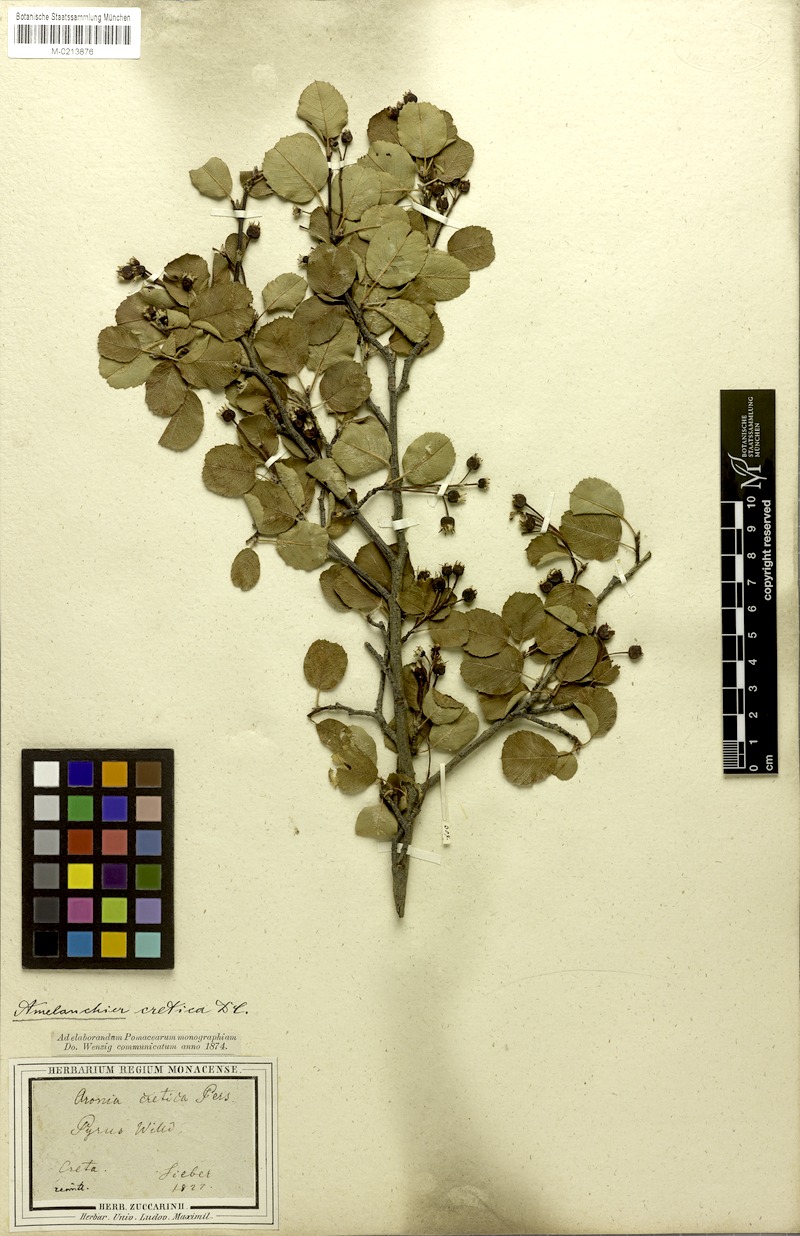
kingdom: Plantae
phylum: Tracheophyta
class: Magnoliopsida
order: Rosales
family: Rosaceae
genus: Amelanchier
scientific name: Amelanchier ovalis
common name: Serviceberry
